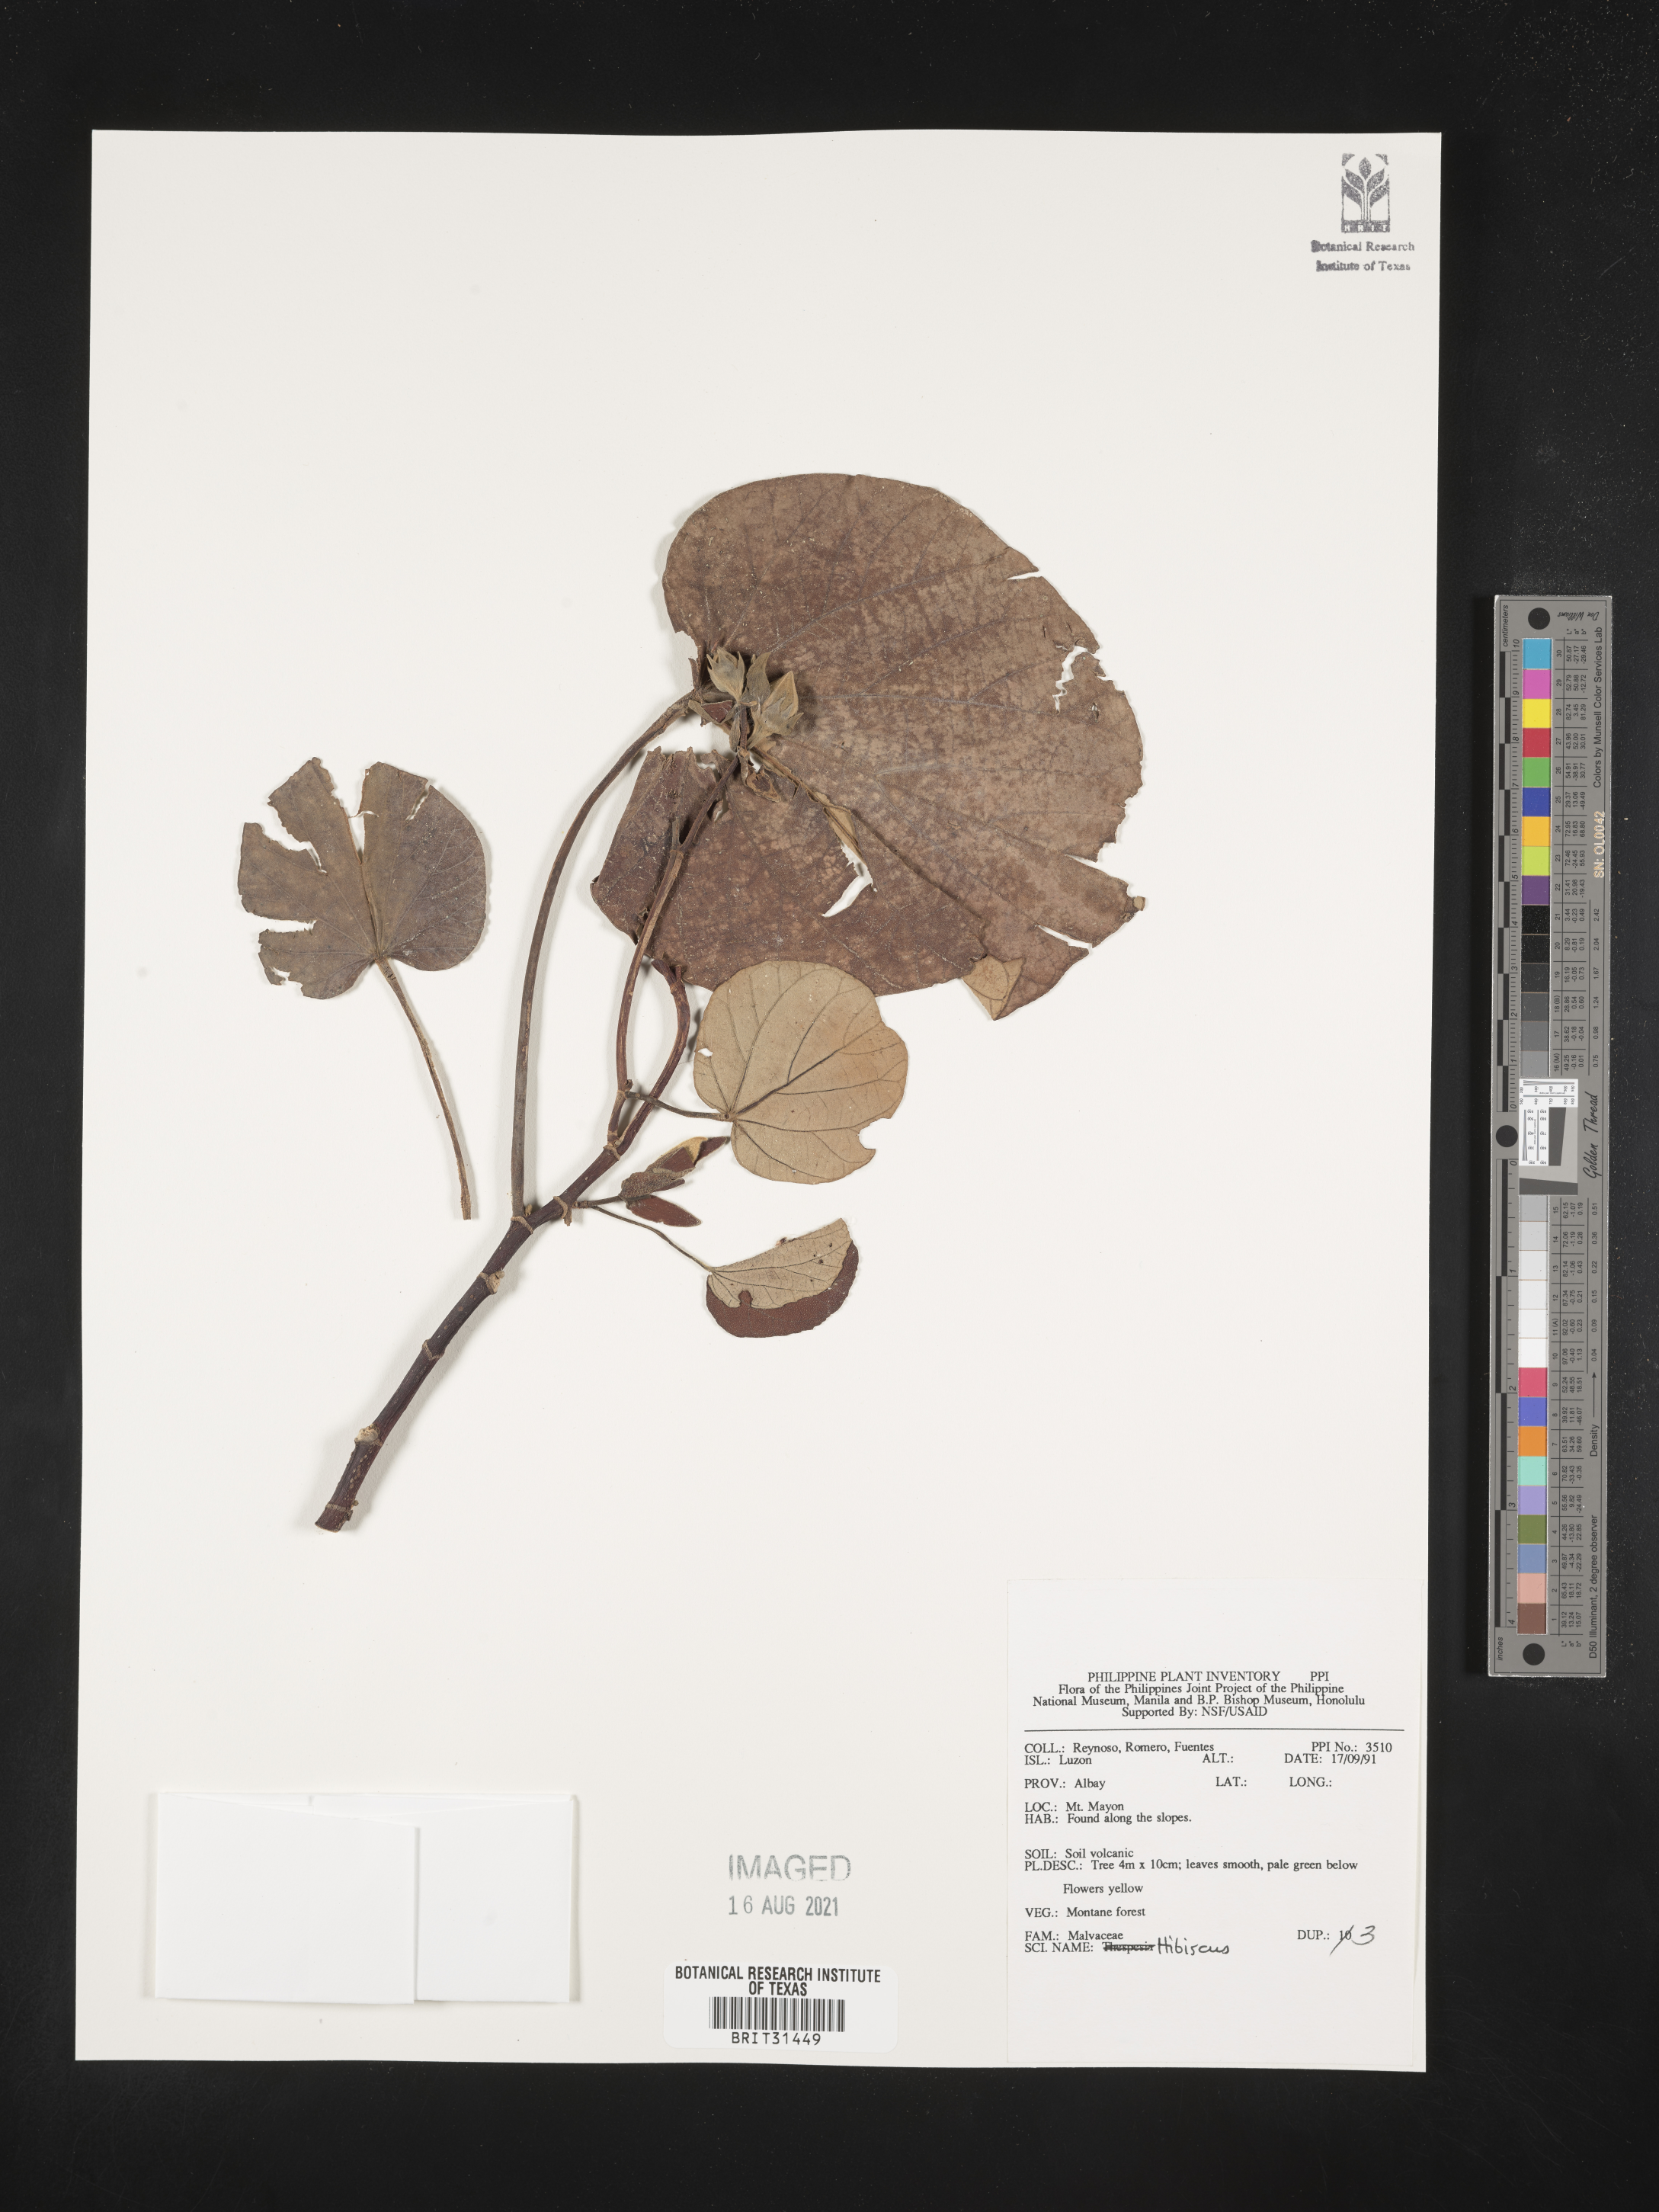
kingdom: Plantae
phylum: Tracheophyta
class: Magnoliopsida
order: Malvales
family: Malvaceae
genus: Hibiscus
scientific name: Hibiscus
